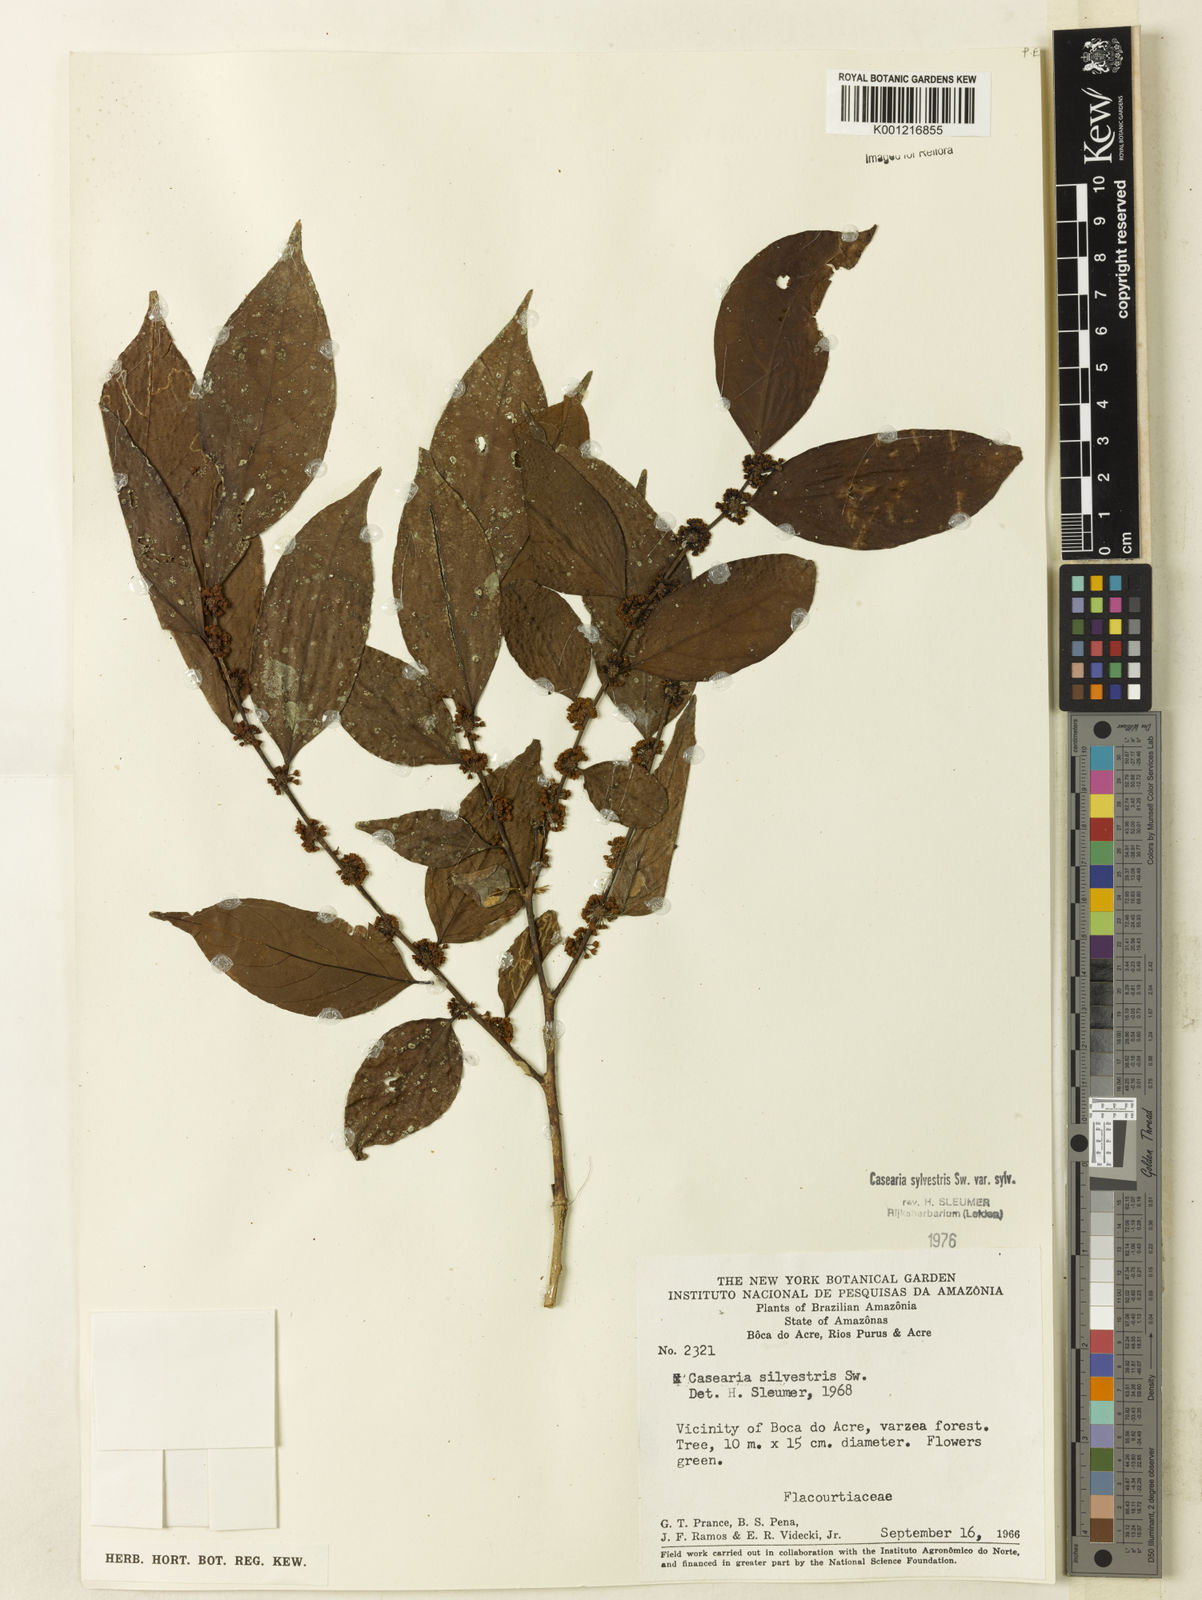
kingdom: Plantae
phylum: Tracheophyta
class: Magnoliopsida
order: Malpighiales
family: Salicaceae
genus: Casearia
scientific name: Casearia sylvestris
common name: Wild sage
